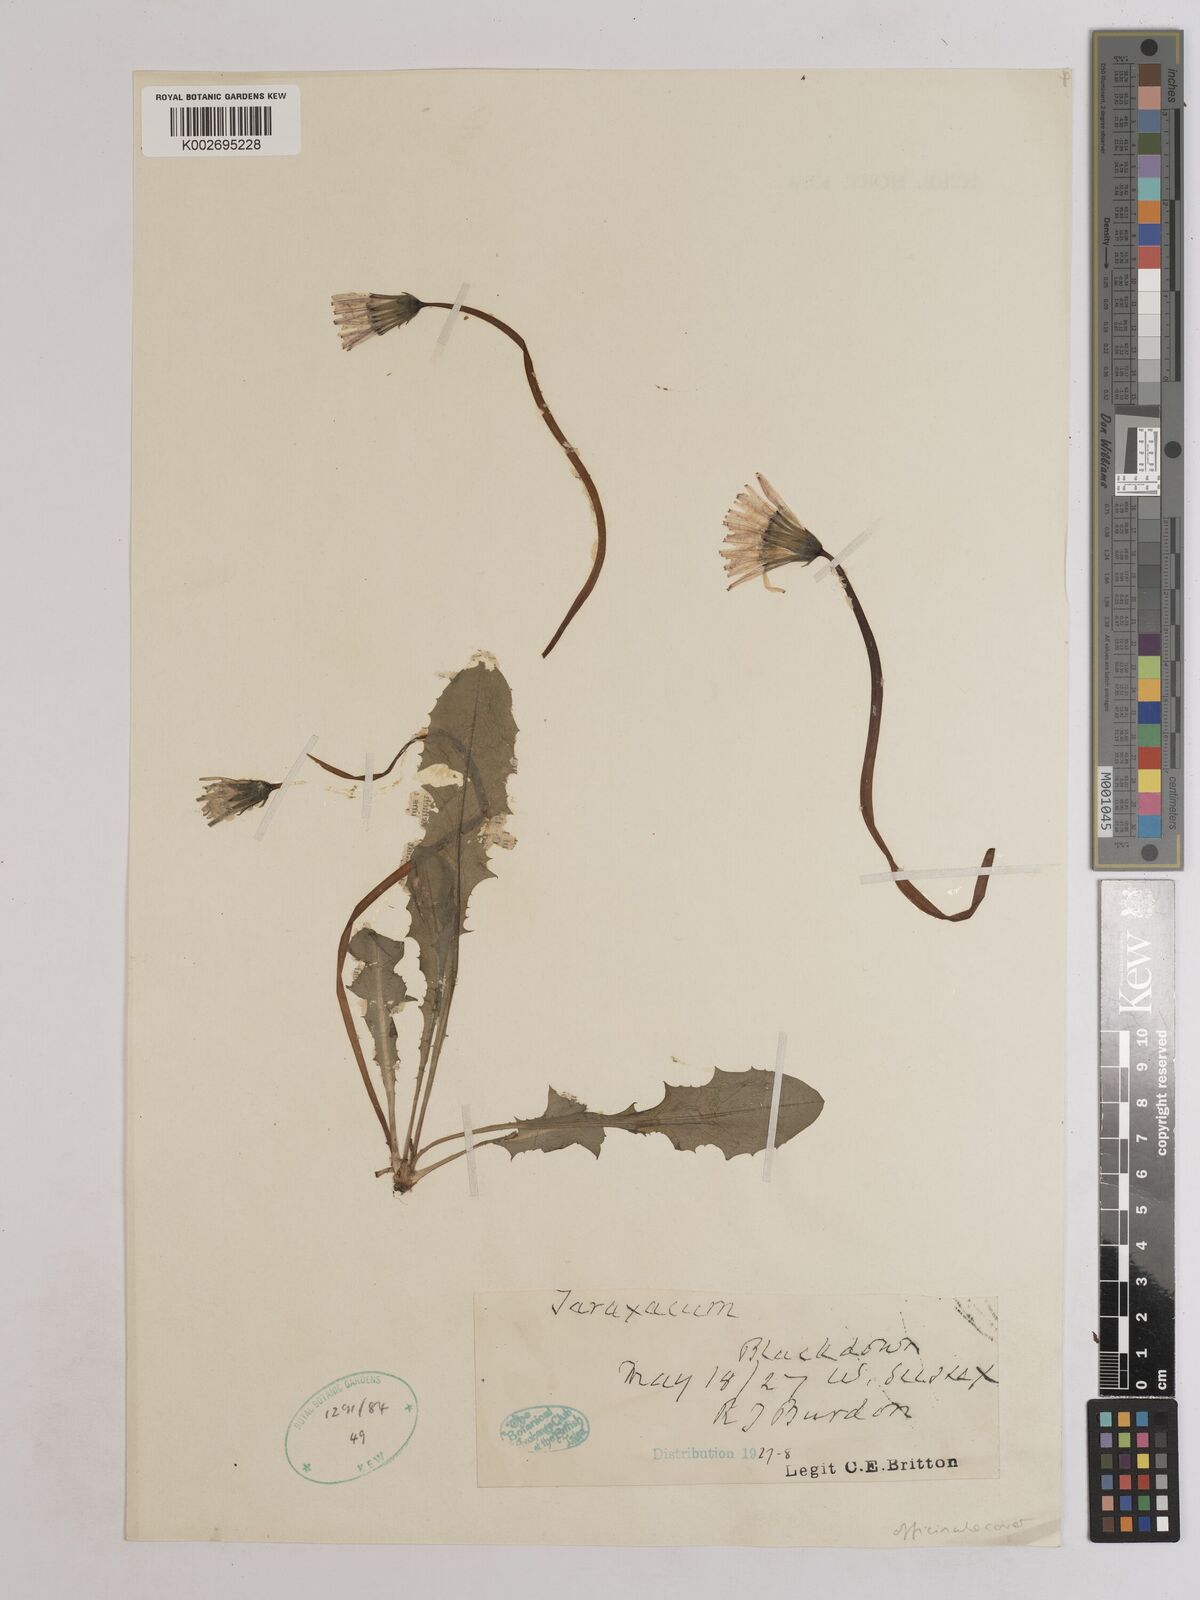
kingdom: Plantae
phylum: Tracheophyta
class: Magnoliopsida
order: Asterales
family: Asteraceae
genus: Taraxacum
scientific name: Taraxacum officinale
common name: Common dandelion
